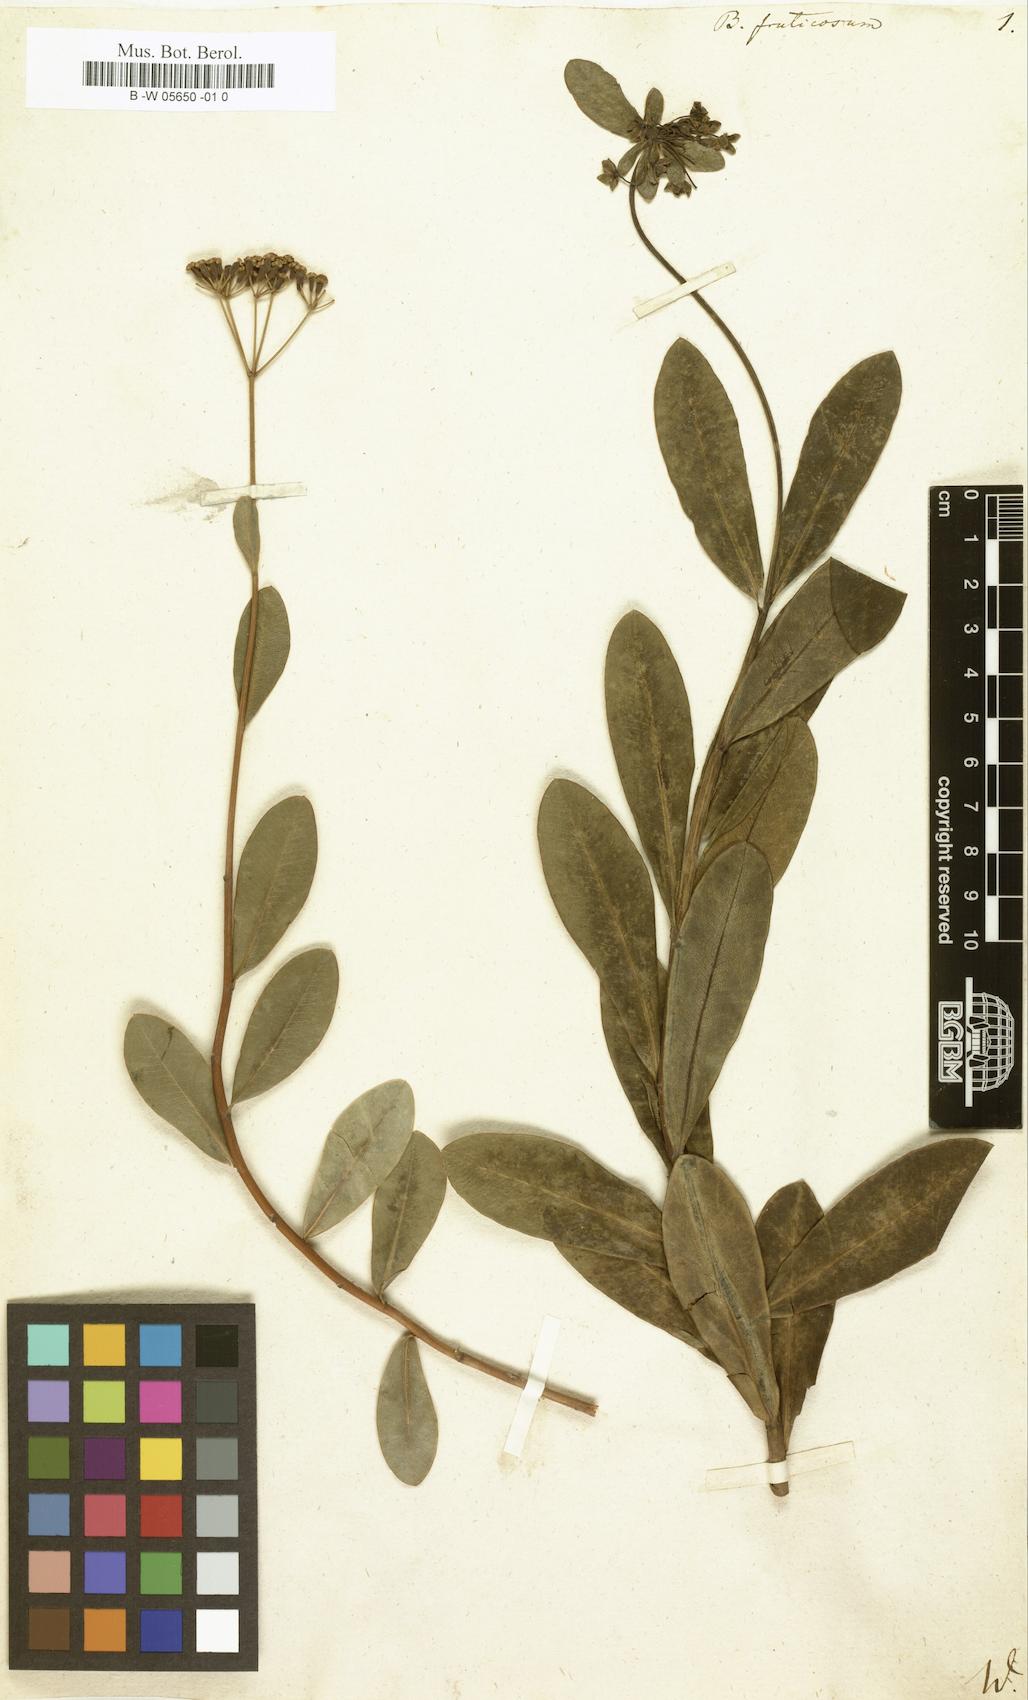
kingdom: Plantae
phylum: Tracheophyta
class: Magnoliopsida
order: Apiales
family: Apiaceae
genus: Bupleurum
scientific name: Bupleurum fruticosum
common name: Shrubby hare's-ear
